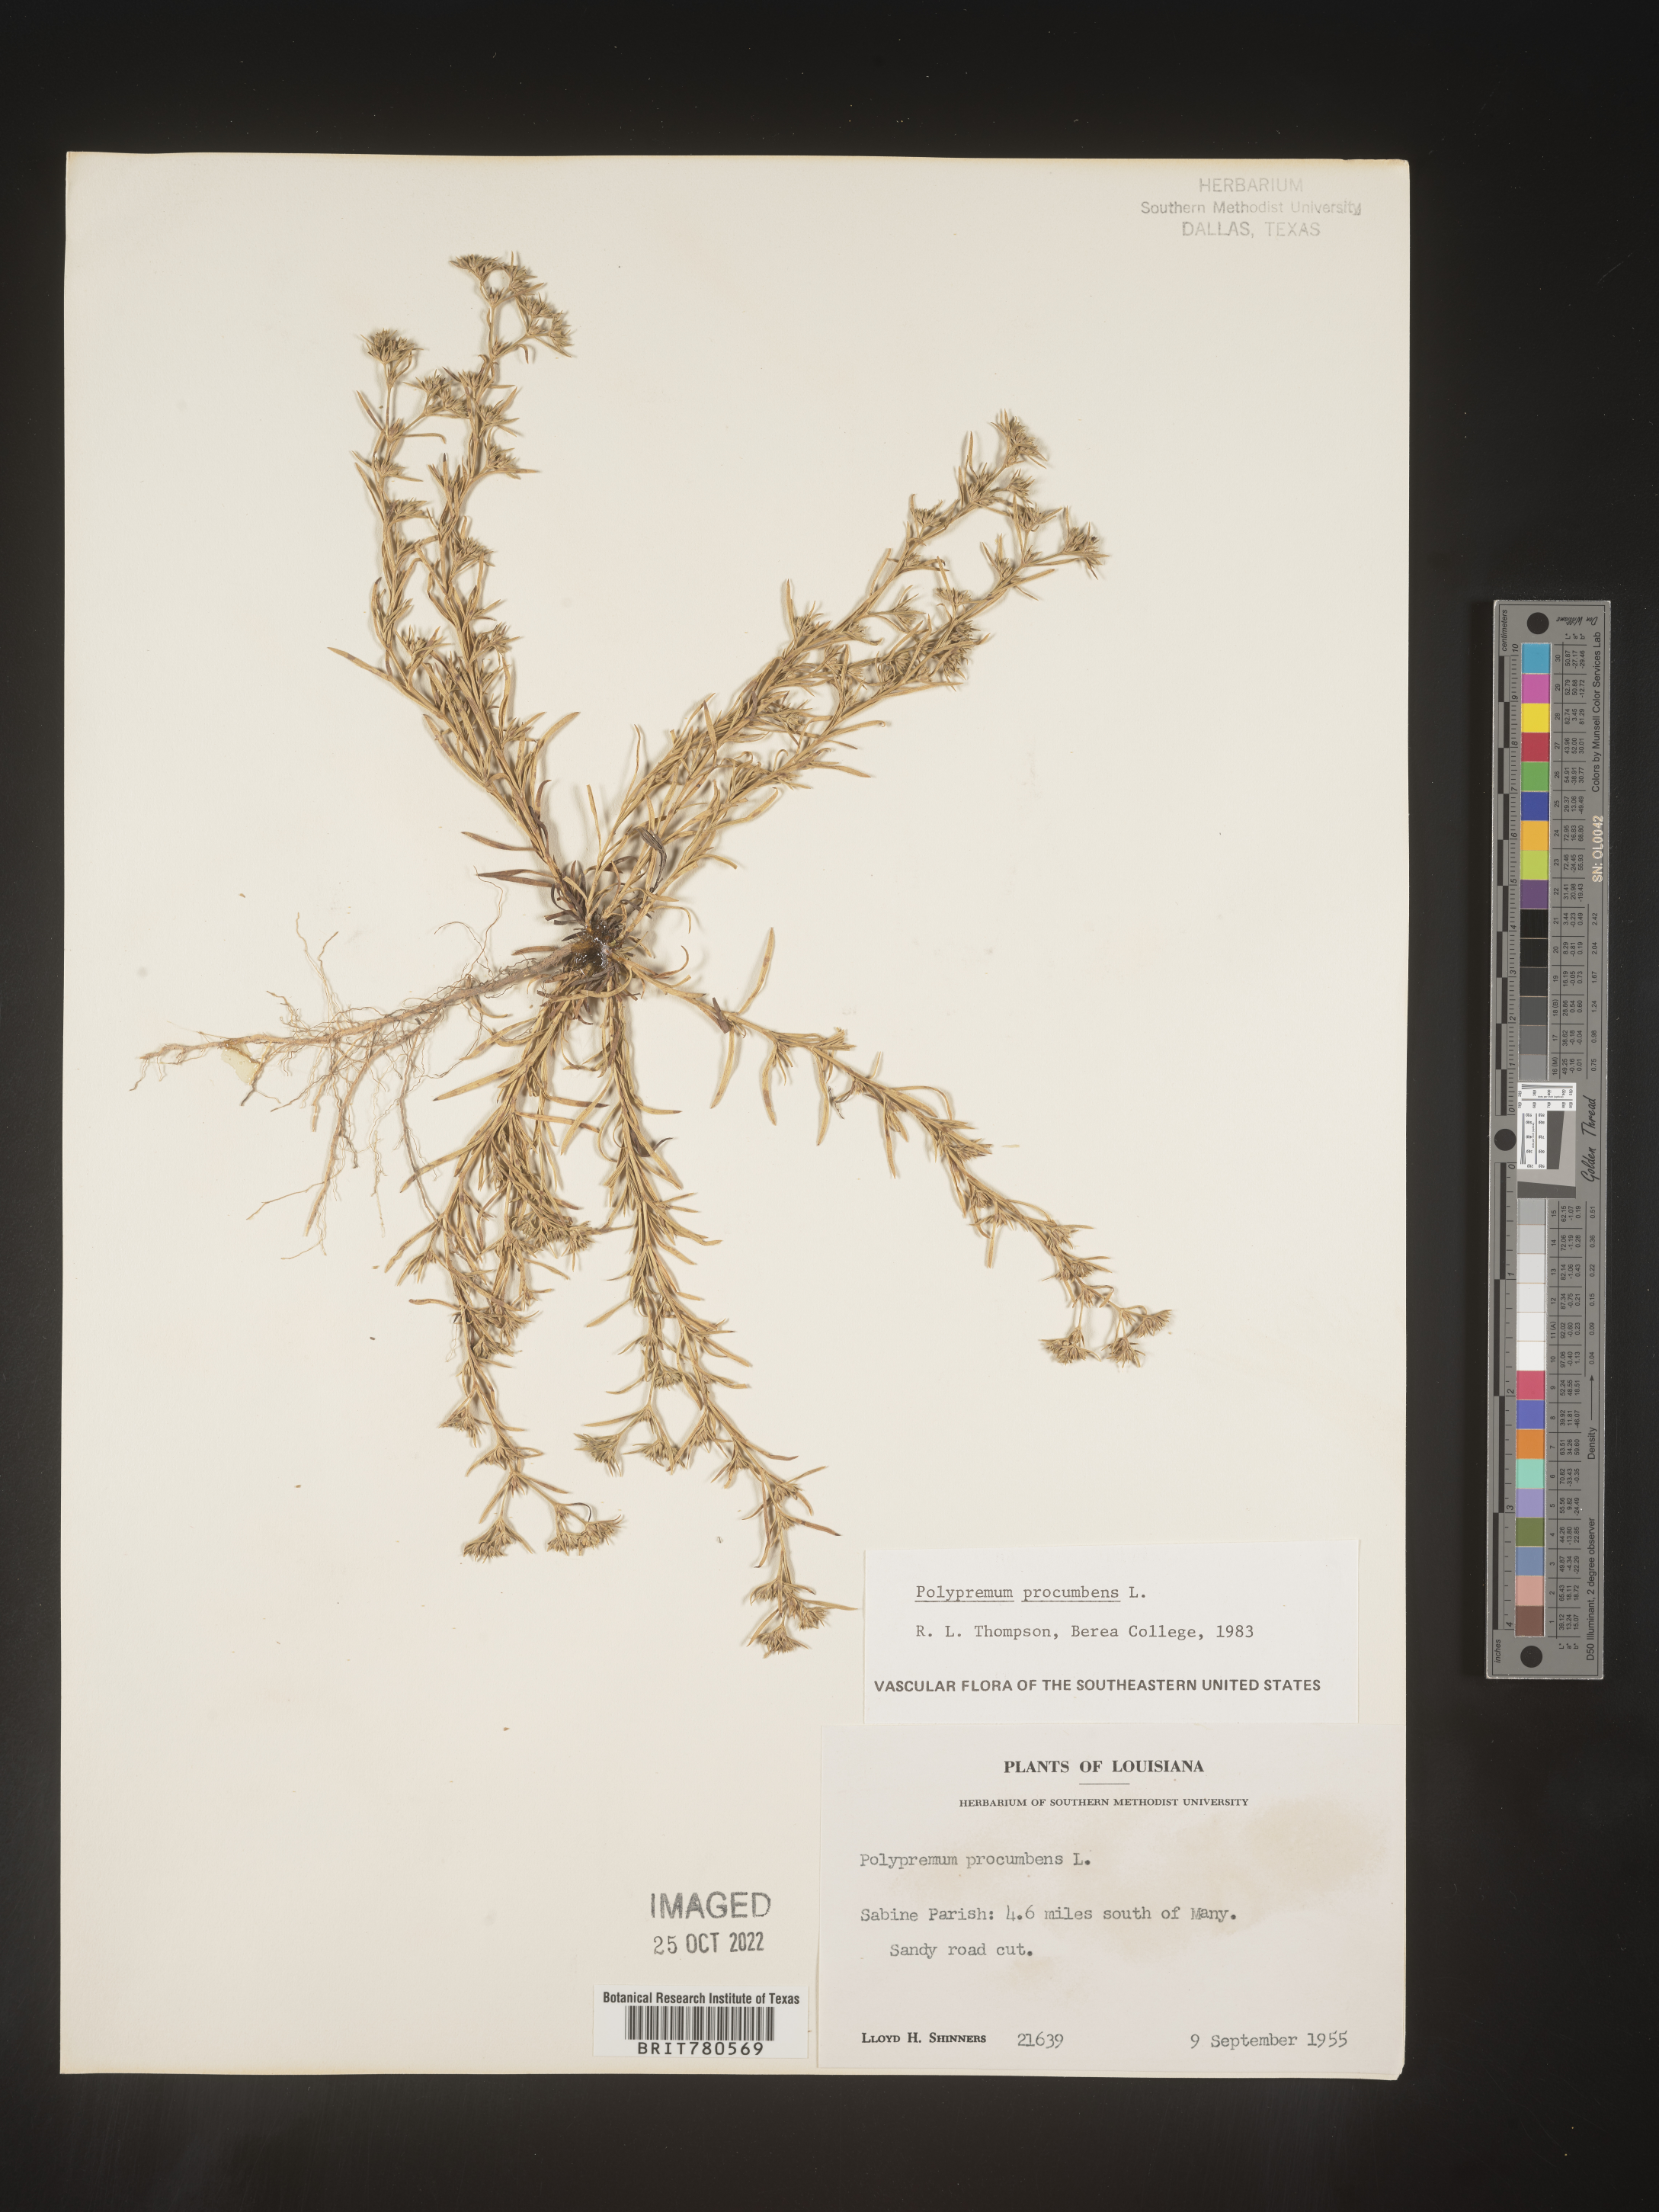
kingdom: Plantae
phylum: Tracheophyta
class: Magnoliopsida
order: Lamiales
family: Tetrachondraceae
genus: Polypremum
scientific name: Polypremum procumbens
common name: Juniper-leaf
